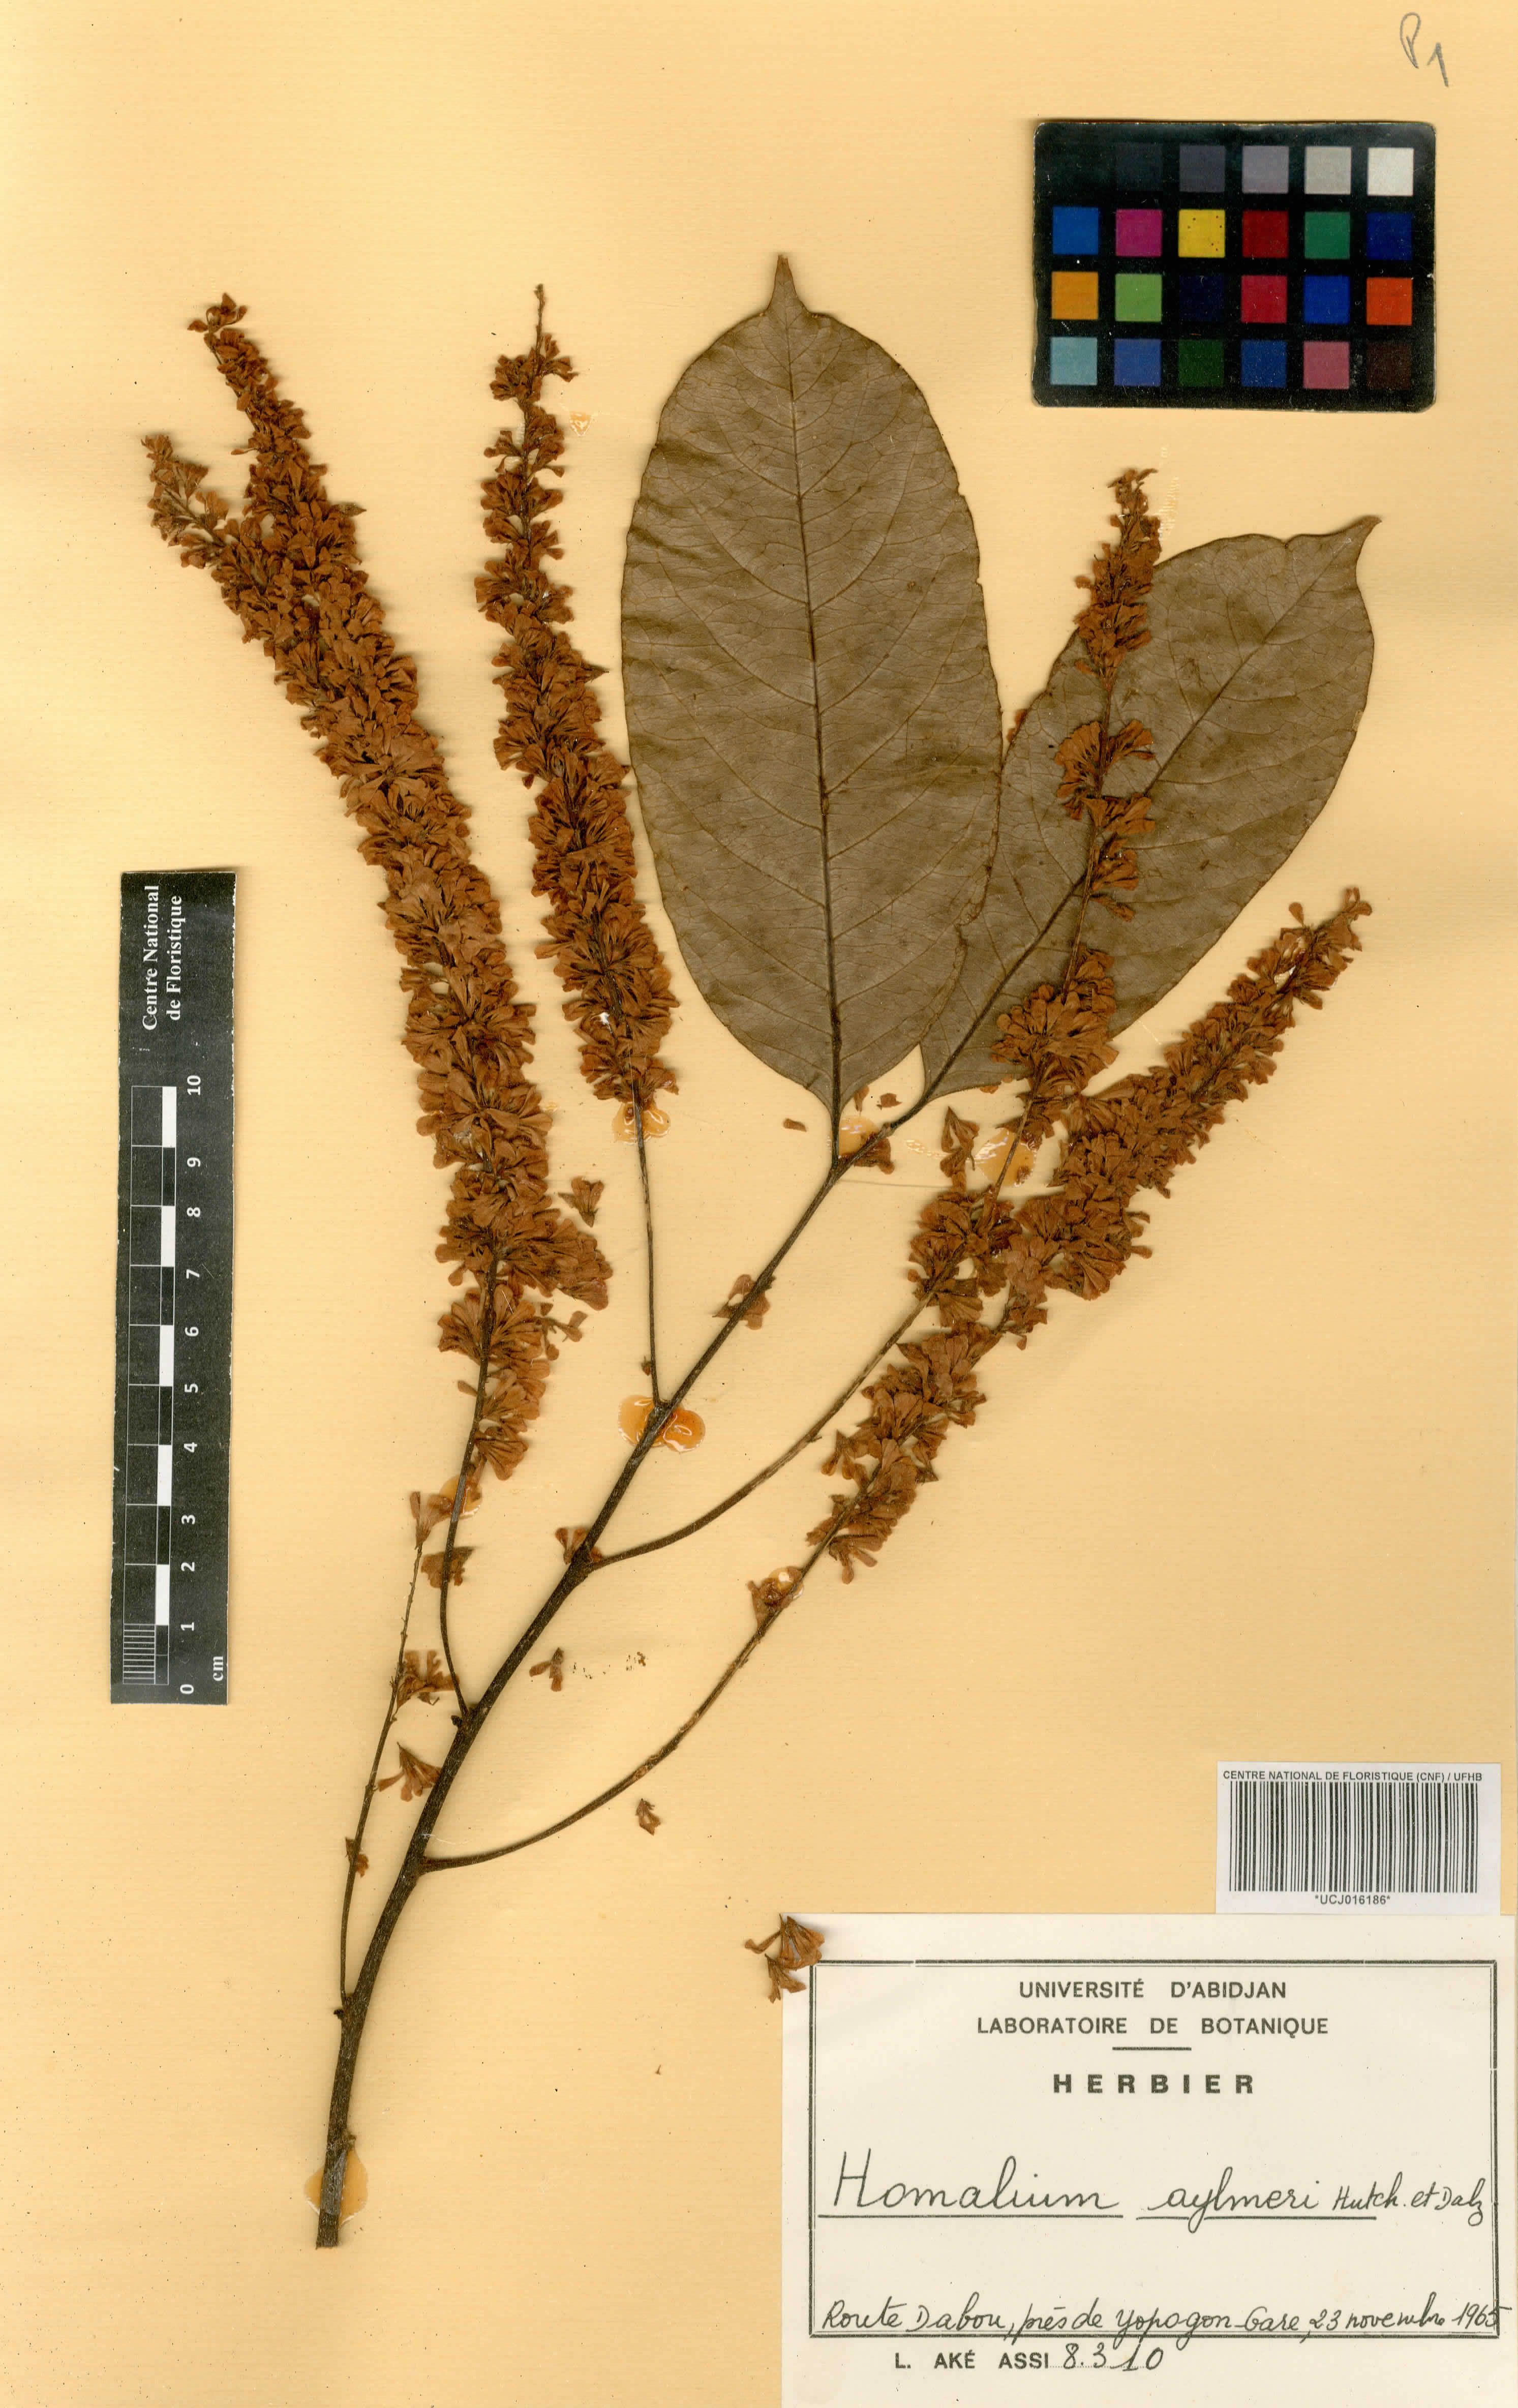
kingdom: Plantae
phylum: Tracheophyta
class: Magnoliopsida
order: Malpighiales
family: Salicaceae
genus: Homalium
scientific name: Homalium longistylum
